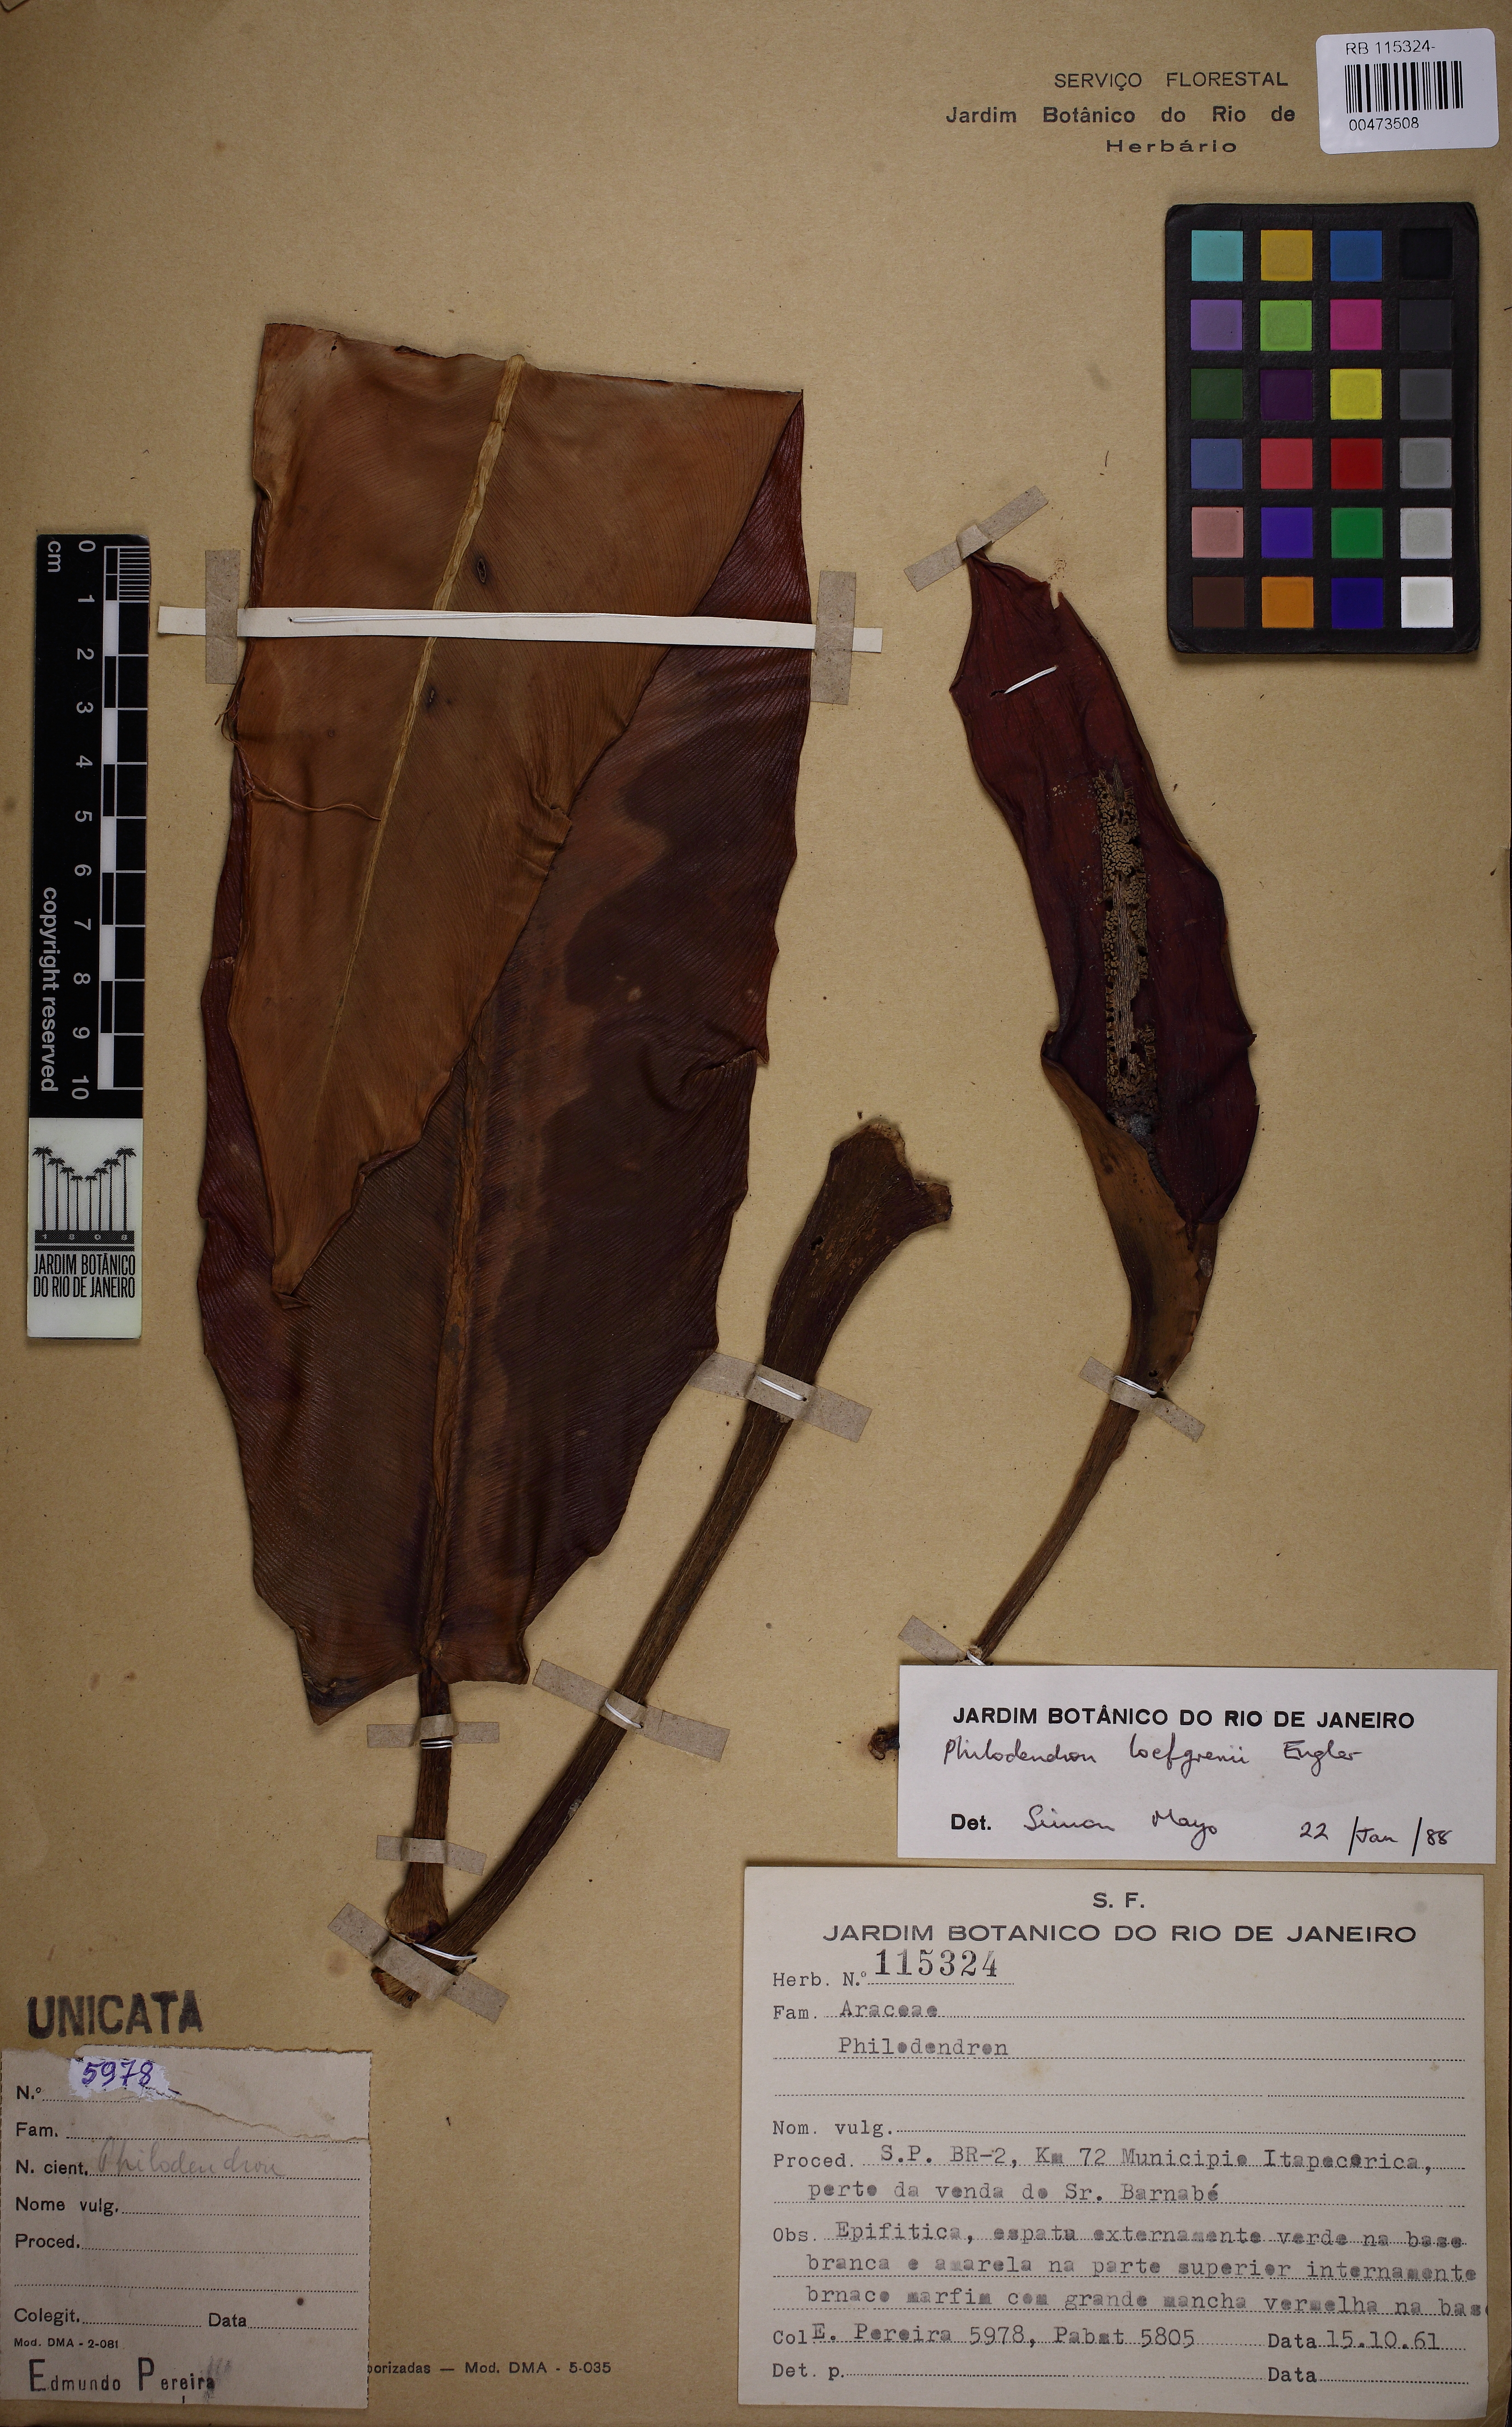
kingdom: Plantae
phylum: Tracheophyta
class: Liliopsida
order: Alismatales
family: Araceae
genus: Philodendron
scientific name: Philodendron loefgrenii
